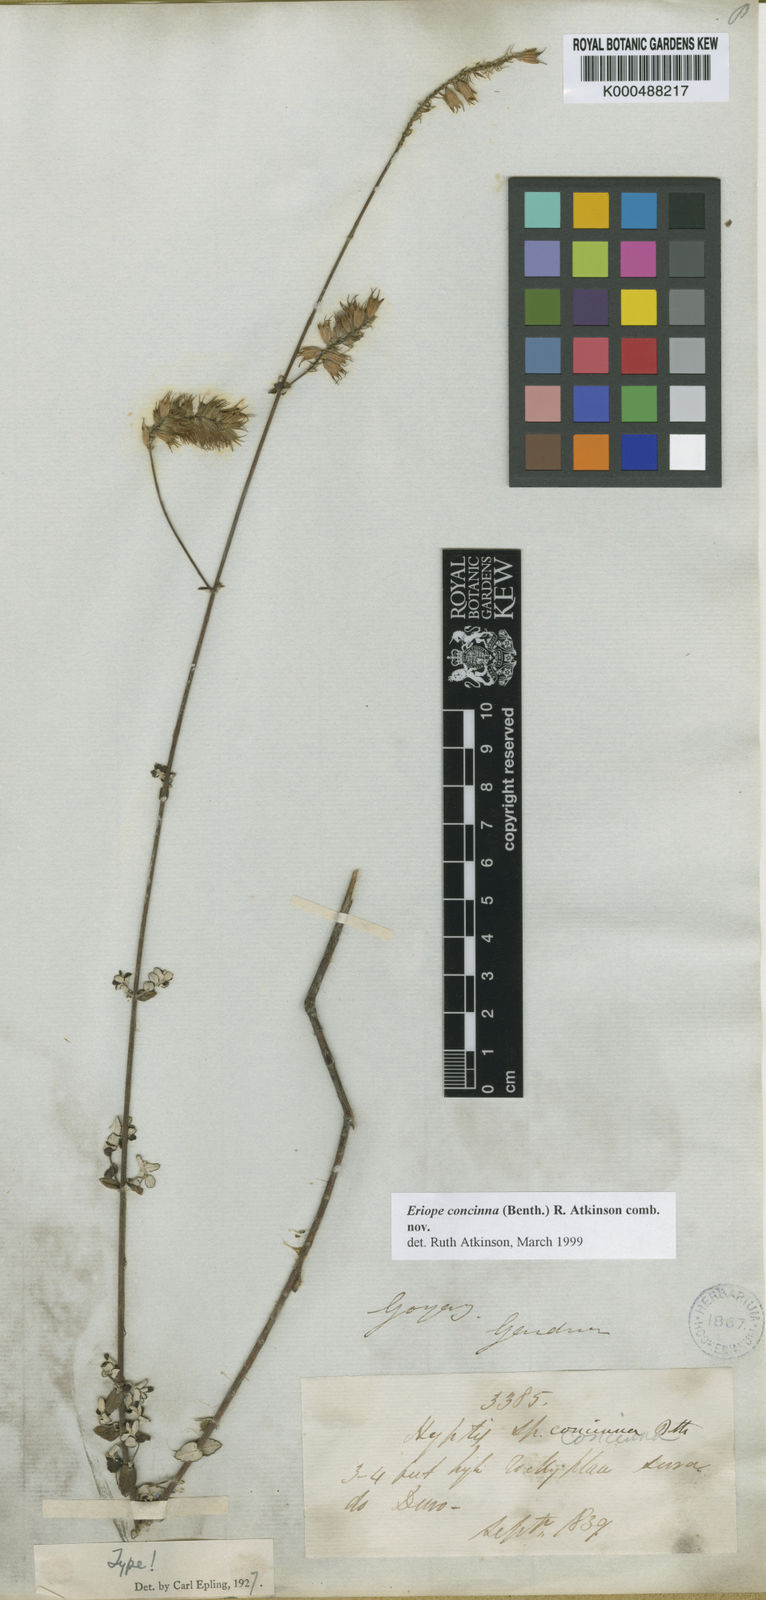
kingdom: Plantae
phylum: Tracheophyta
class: Magnoliopsida
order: Lamiales
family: Lamiaceae
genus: Hypenia
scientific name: Hypenia concinna
